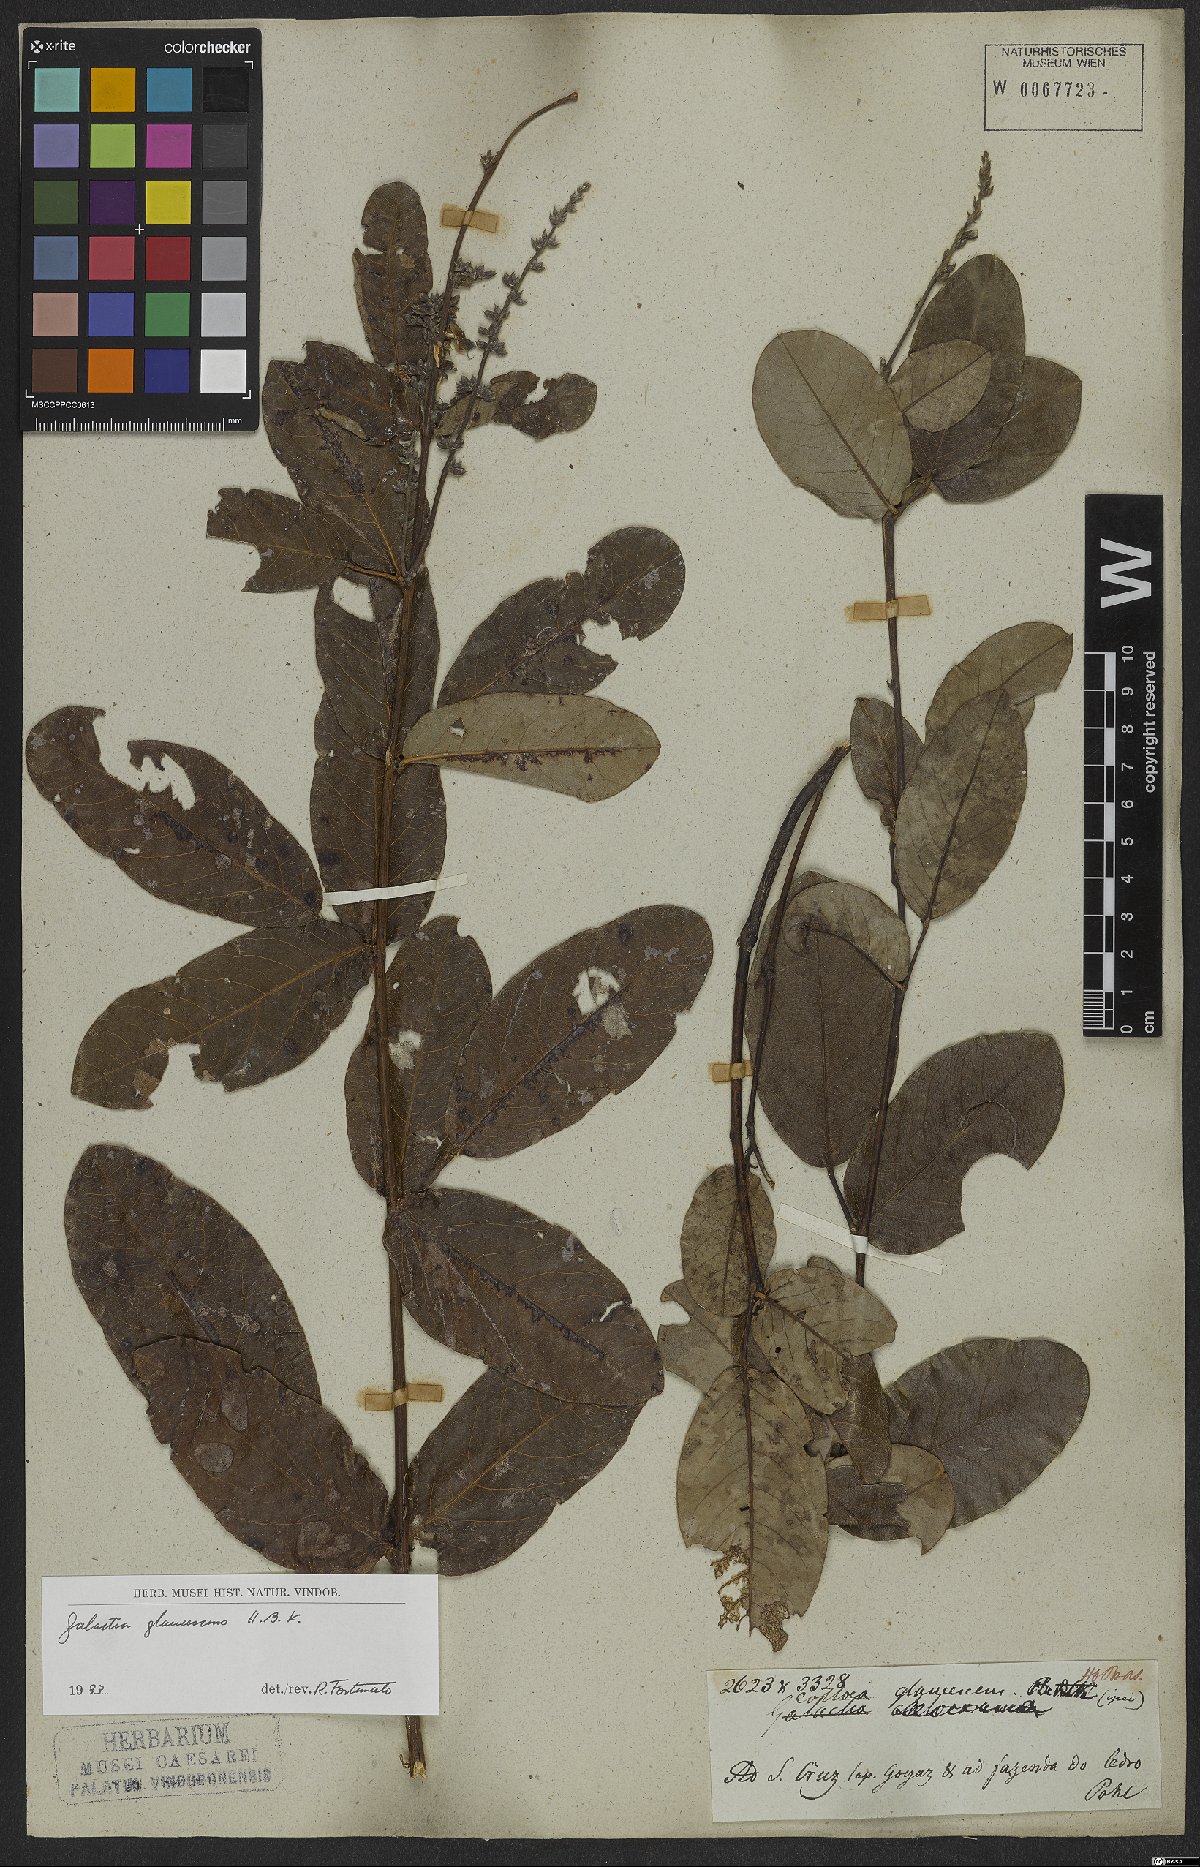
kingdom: Plantae
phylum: Tracheophyta
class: Magnoliopsida
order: Fabales
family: Fabaceae
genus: Galactia
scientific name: Galactia glaucescens
